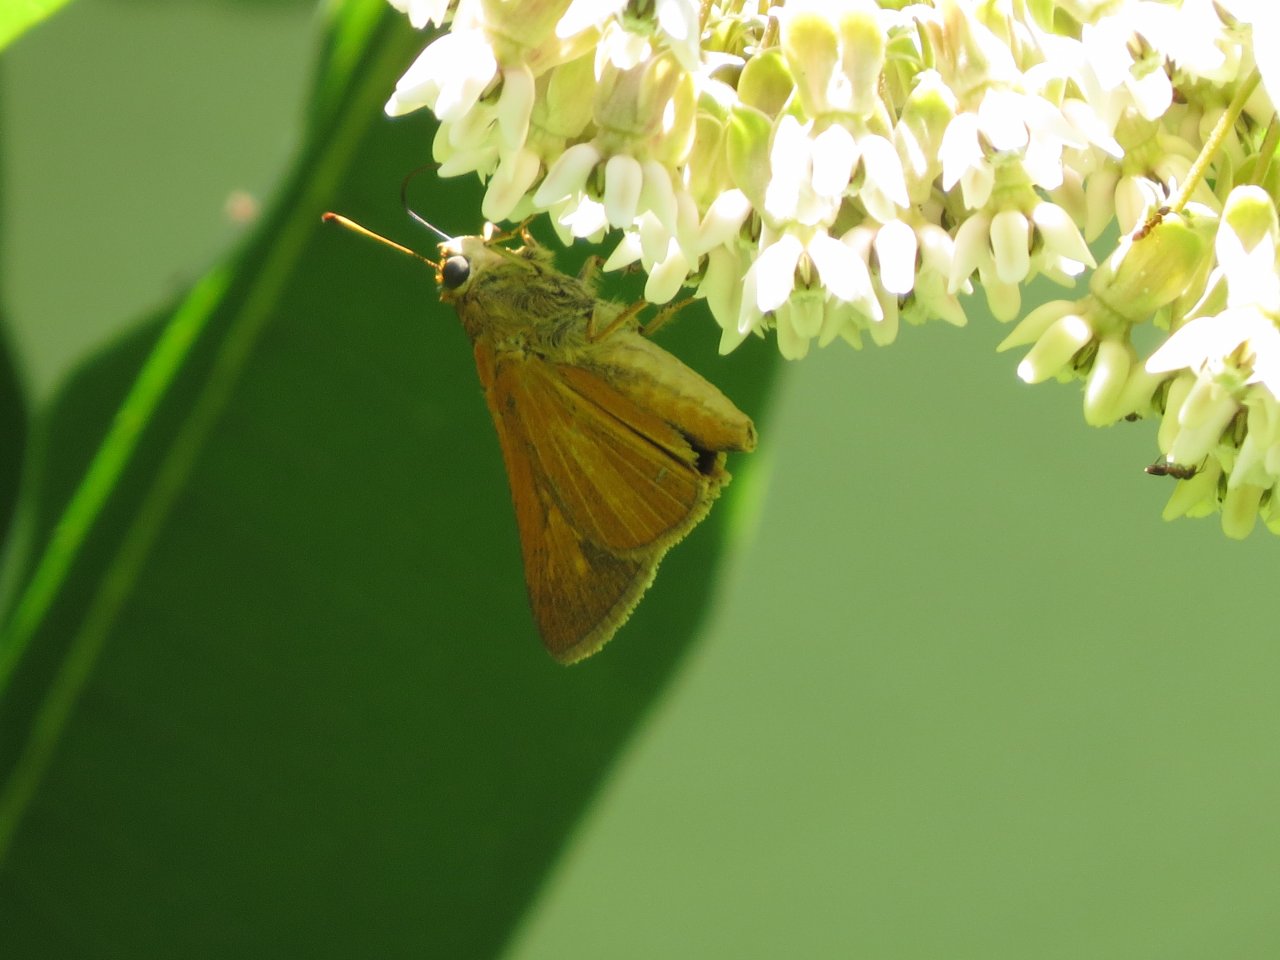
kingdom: Animalia
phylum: Arthropoda
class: Insecta
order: Lepidoptera
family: Hesperiidae
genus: Problema
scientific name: Problema byssus
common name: Byssus Skipper
